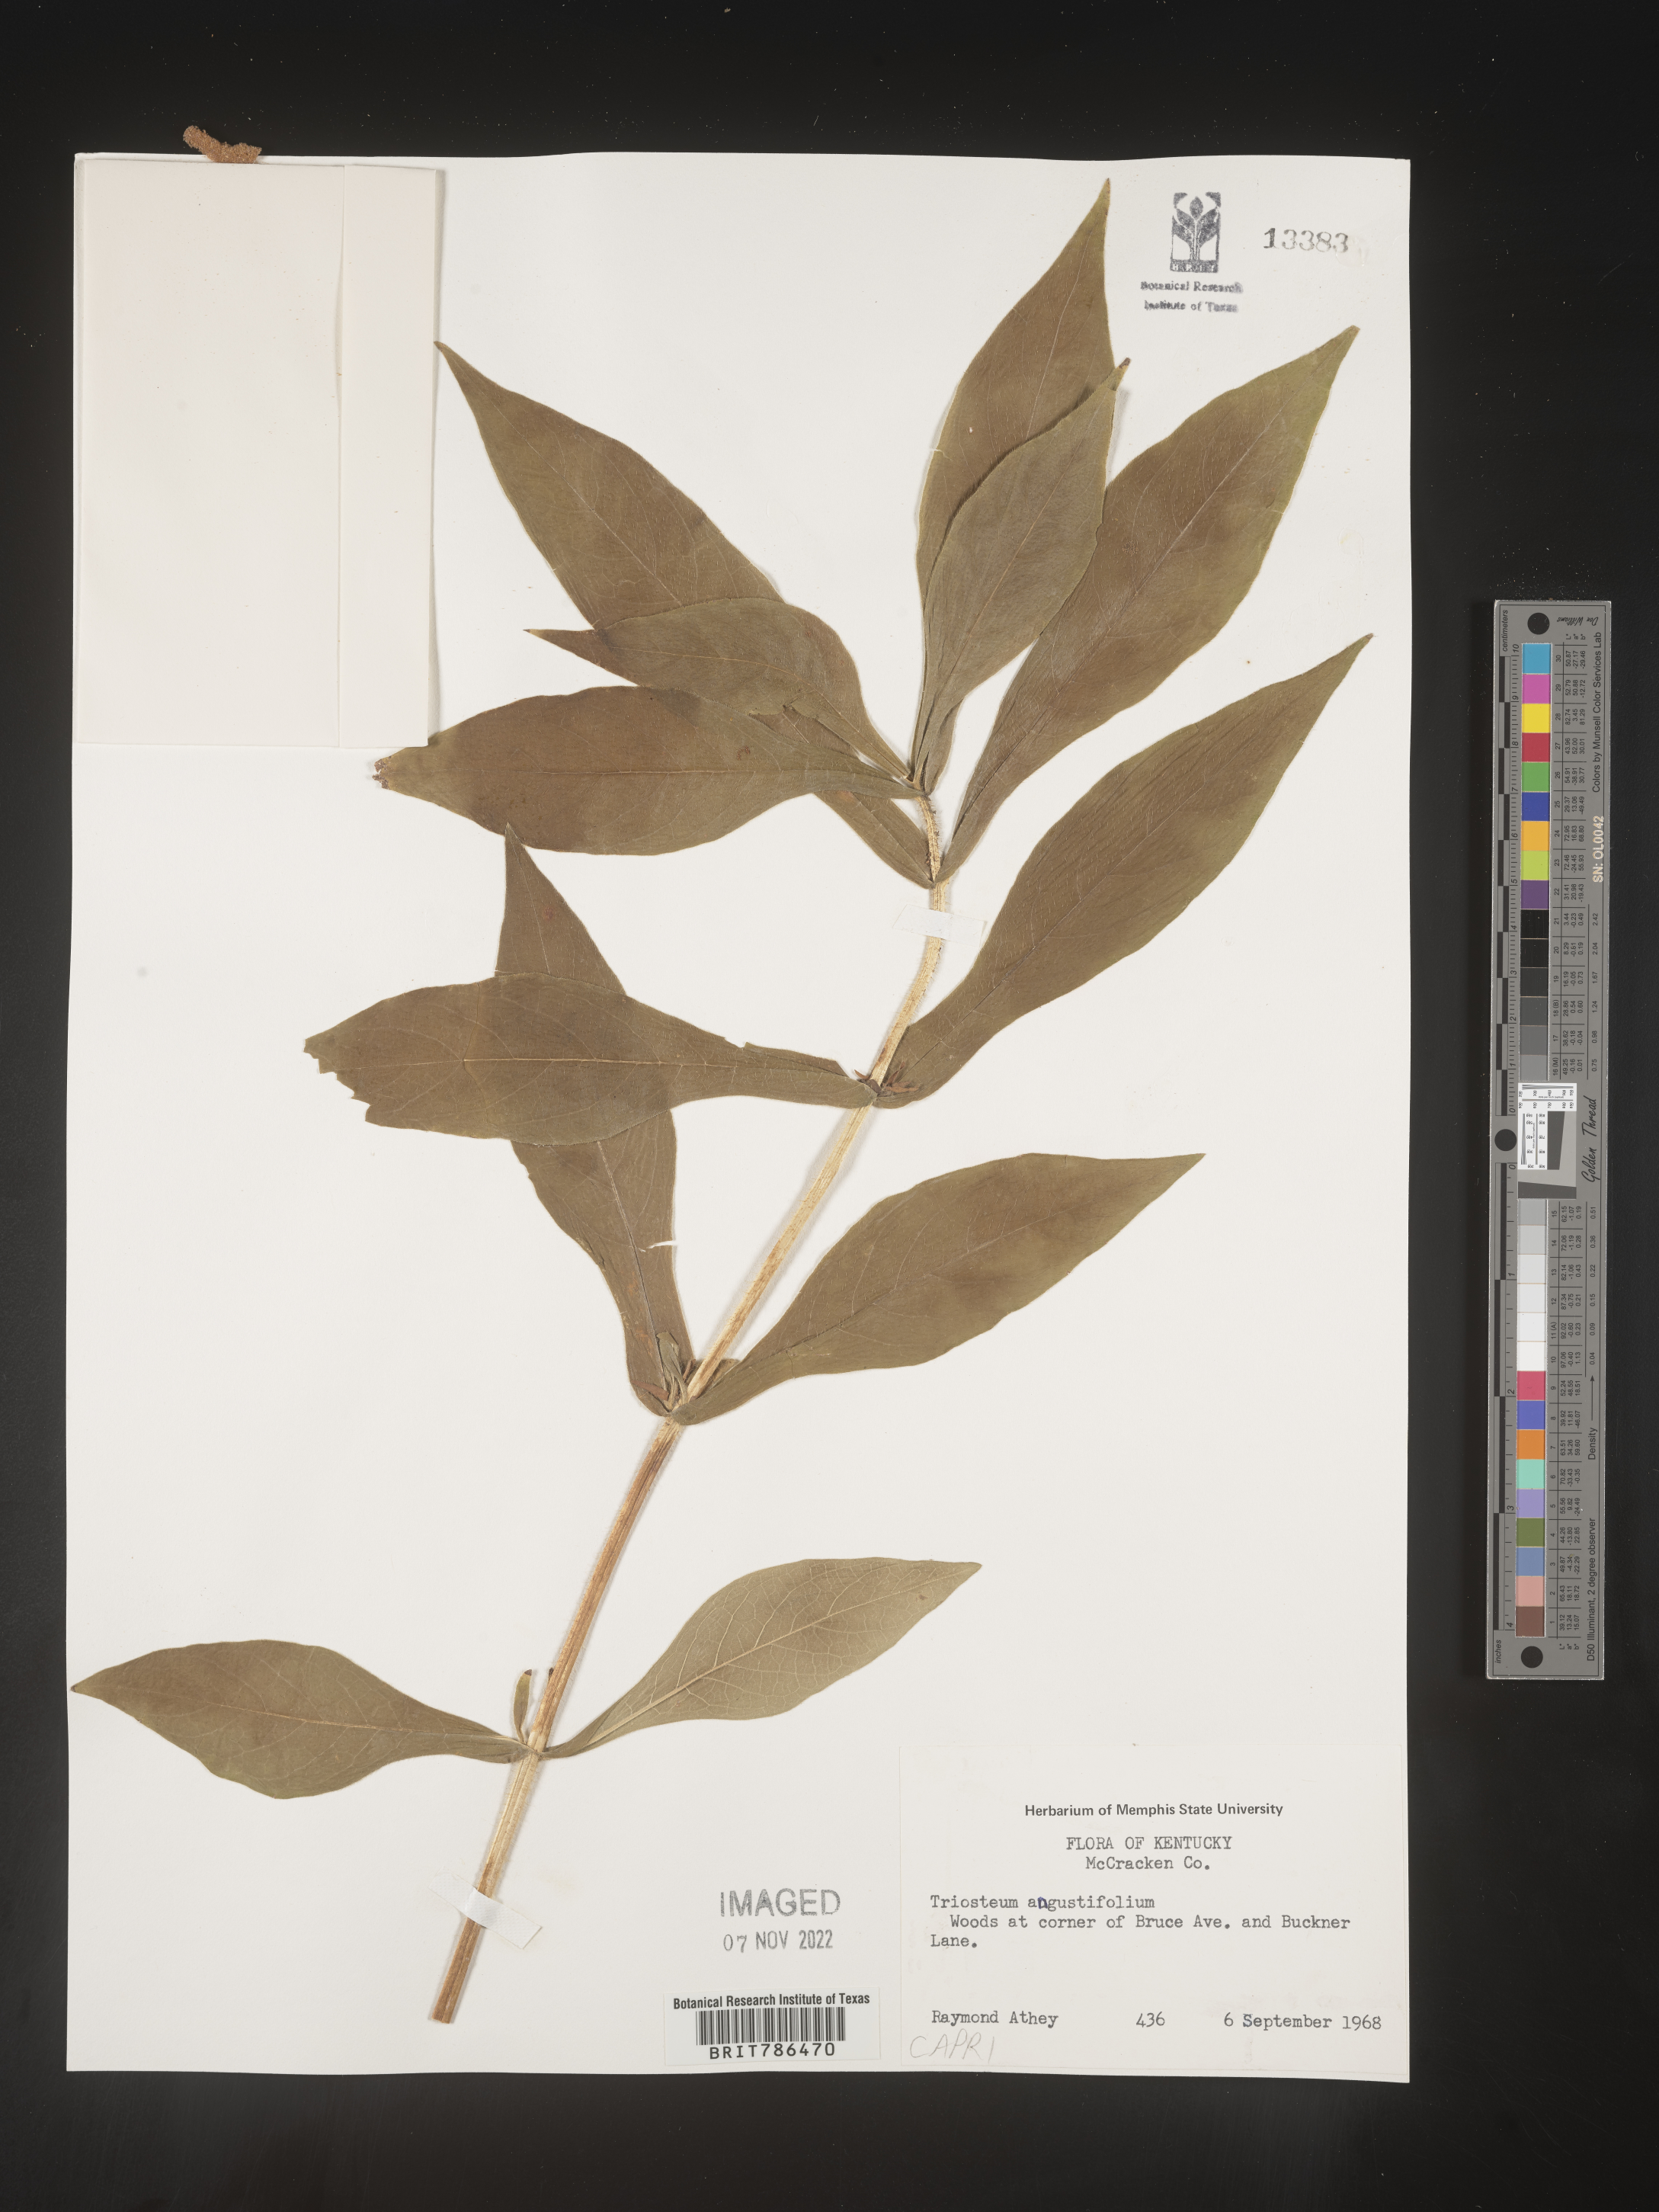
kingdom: Plantae
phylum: Tracheophyta
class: Magnoliopsida
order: Dipsacales
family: Caprifoliaceae
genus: Triosteum
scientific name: Triosteum angustifolium
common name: Narrow-leaved horse-gentian
